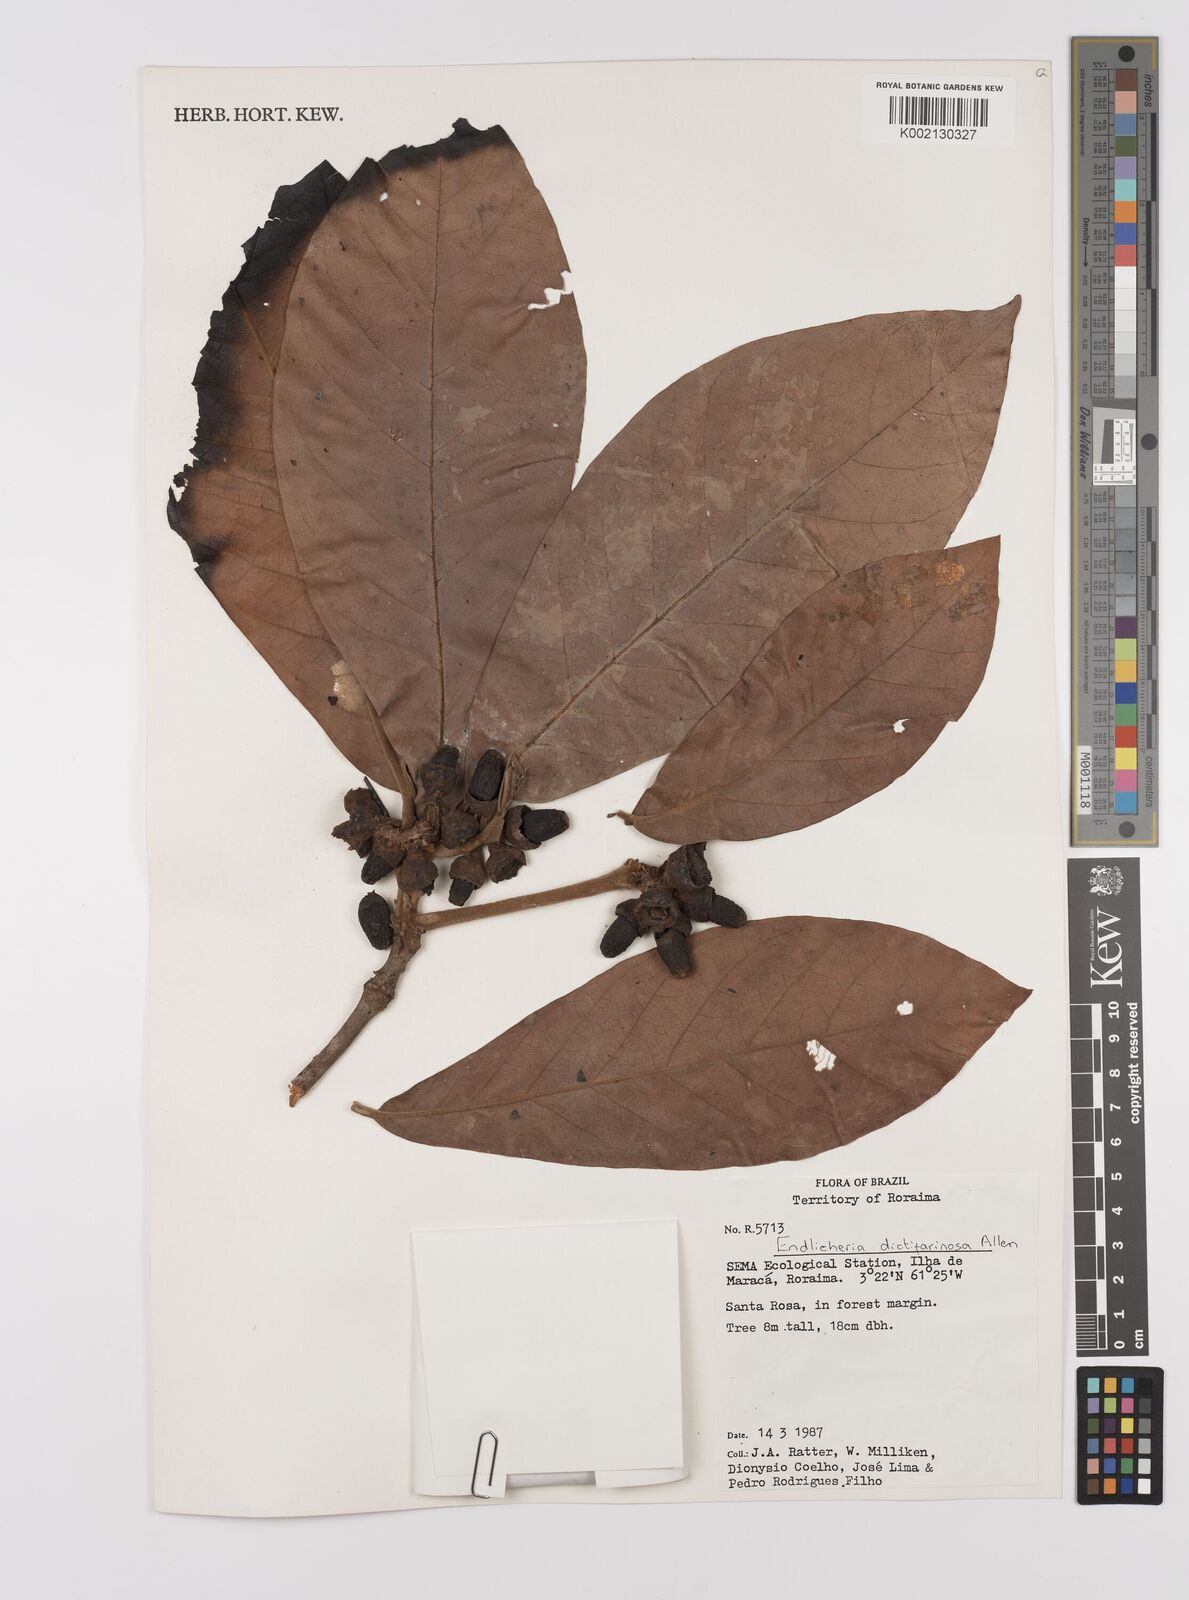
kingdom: Plantae
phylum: Tracheophyta
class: Magnoliopsida
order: Laurales
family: Lauraceae
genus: Endlicheria
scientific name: Endlicheria dictifarinosa
